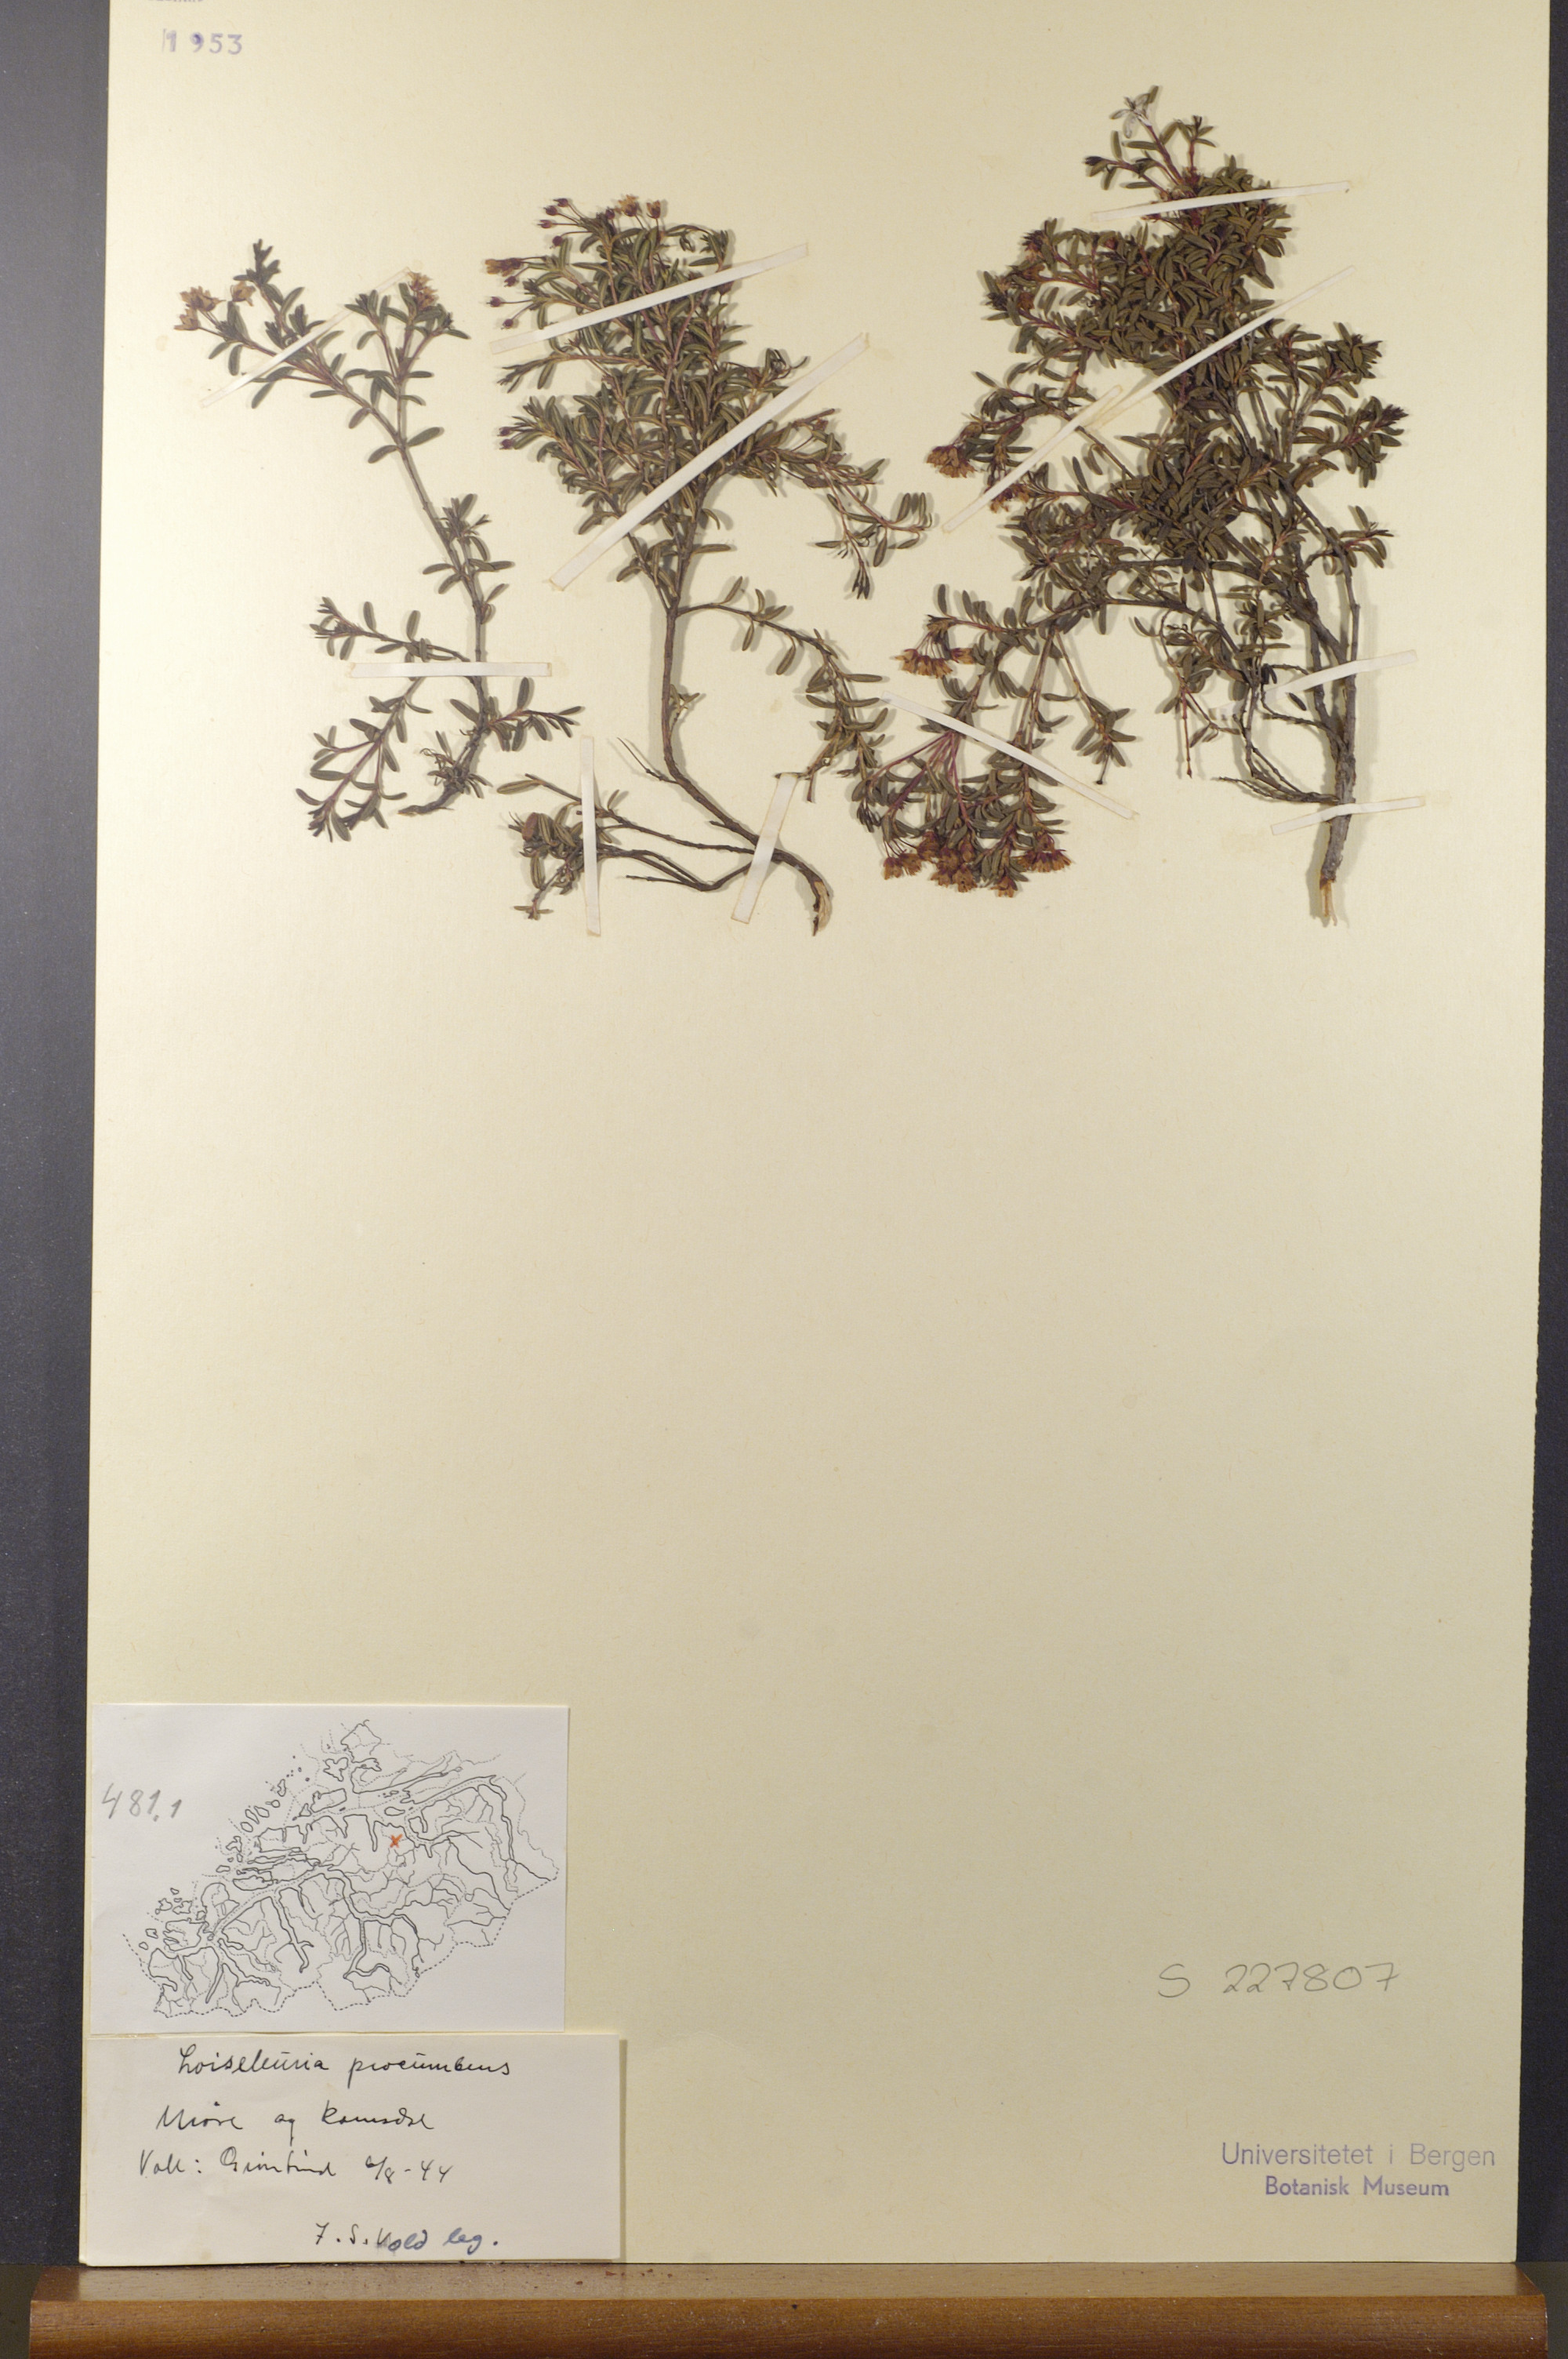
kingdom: Plantae
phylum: Tracheophyta
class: Magnoliopsida
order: Ericales
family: Ericaceae
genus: Kalmia
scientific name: Kalmia procumbens
